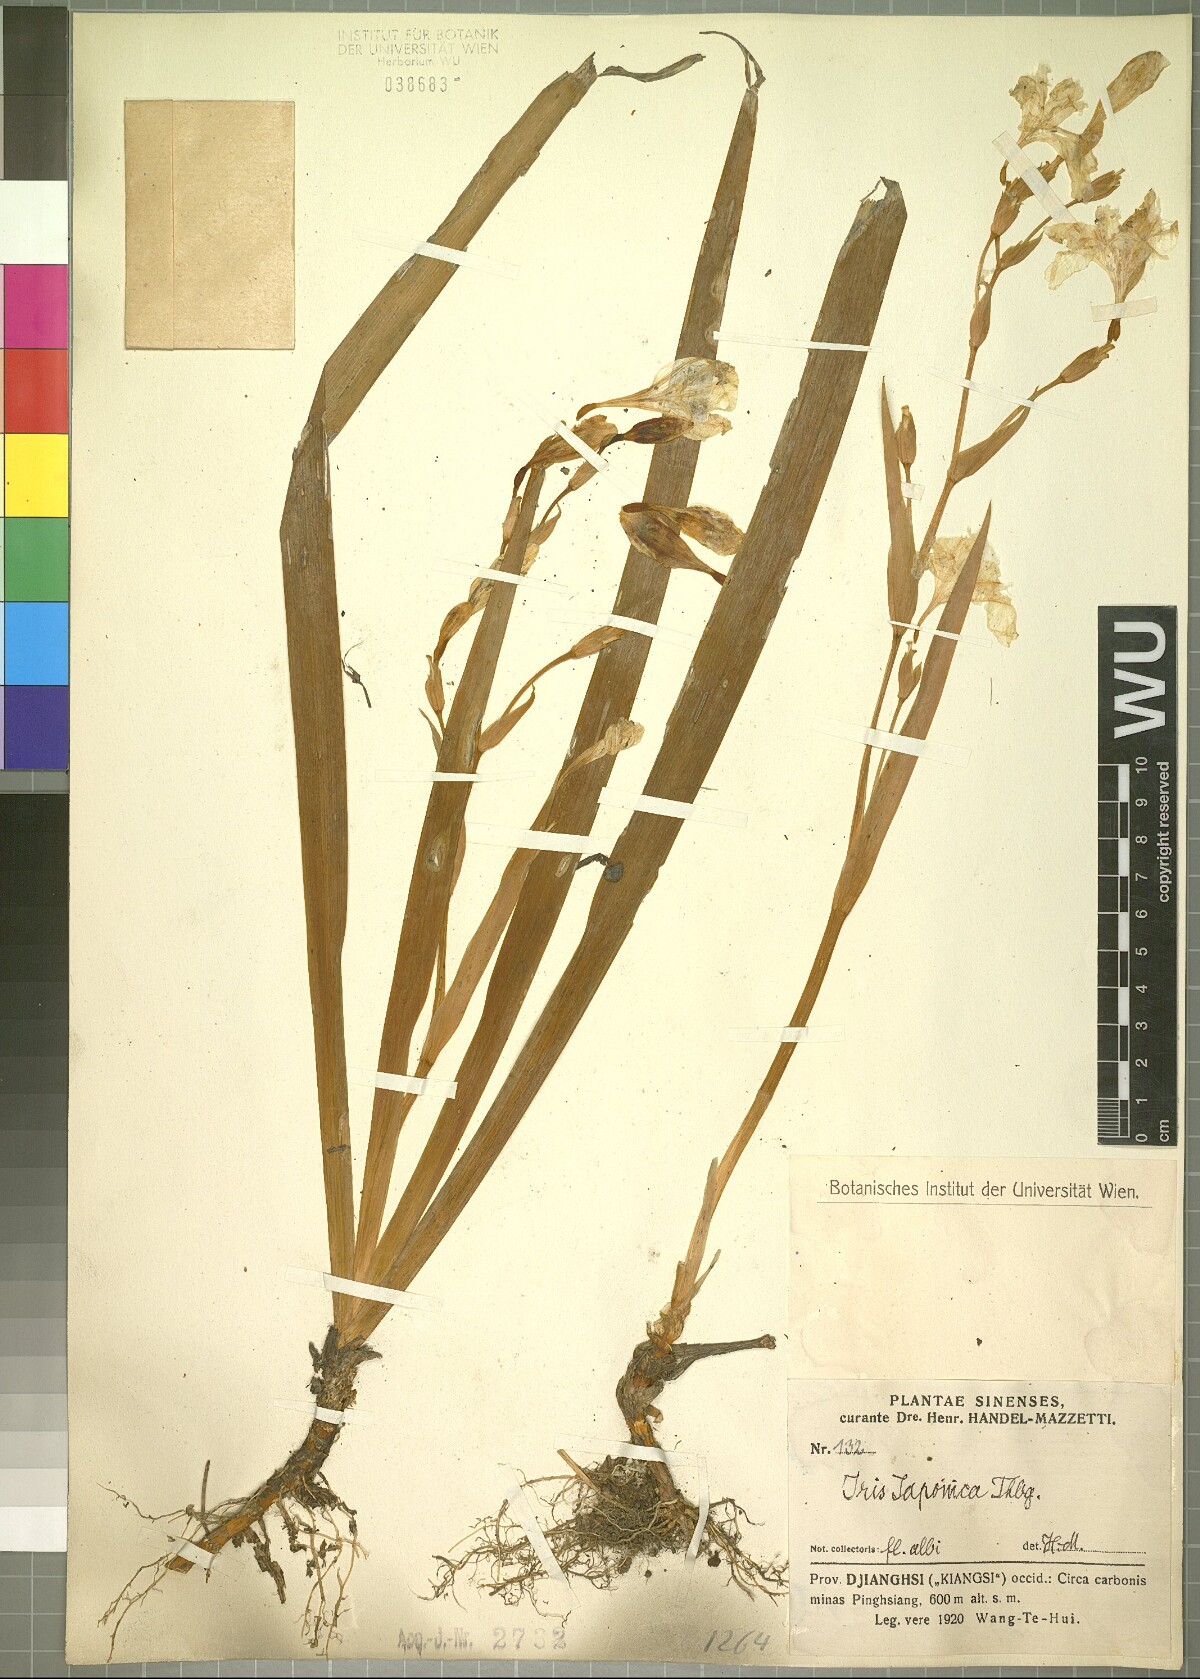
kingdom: Plantae
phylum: Tracheophyta
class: Liliopsida
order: Asparagales
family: Iridaceae
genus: Iris
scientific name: Iris japonica
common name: Butterfly-flower
